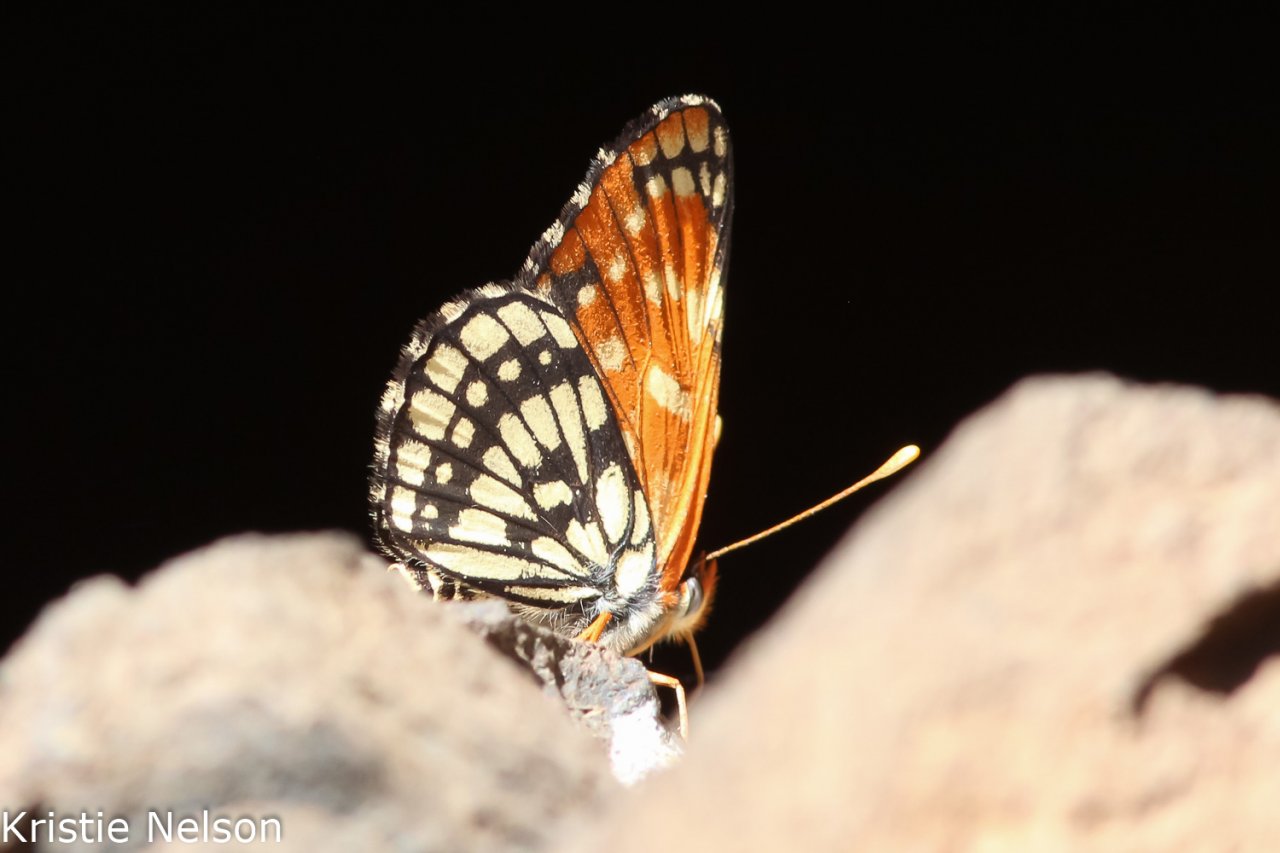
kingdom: Animalia
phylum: Arthropoda
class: Insecta
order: Lepidoptera
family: Nymphalidae
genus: Thessalia
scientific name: Thessalia leanira
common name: Leanira Checkerspot
